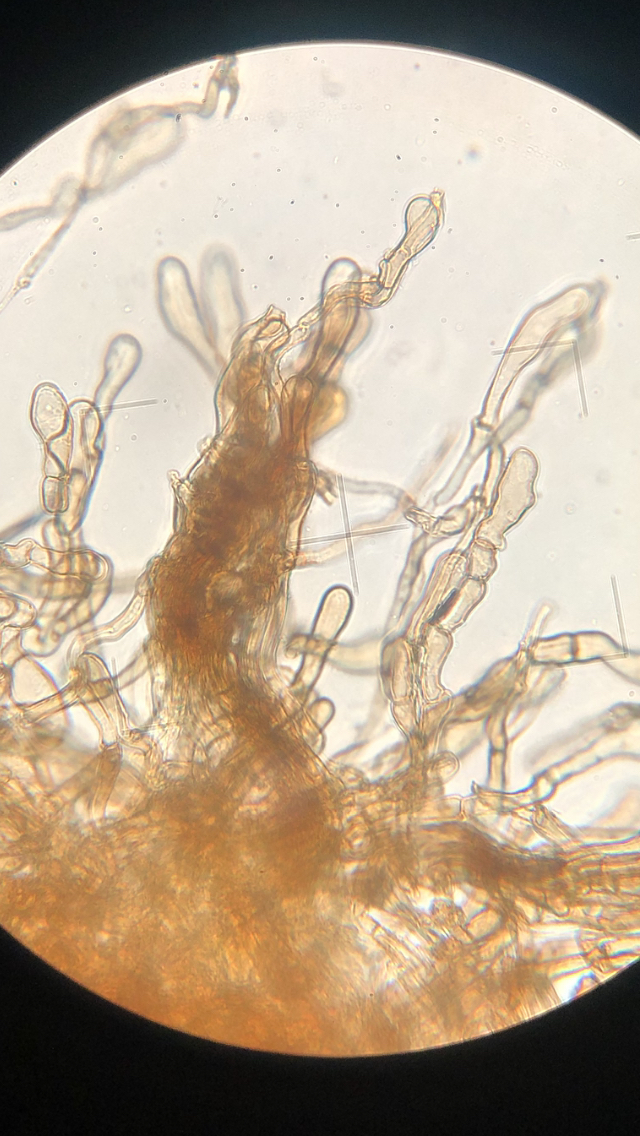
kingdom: Fungi
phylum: Basidiomycota
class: Agaricomycetes
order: Agaricales
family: Agaricaceae
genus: Lepiota
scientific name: Lepiota castanea
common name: kastaniebrun parasolhat
